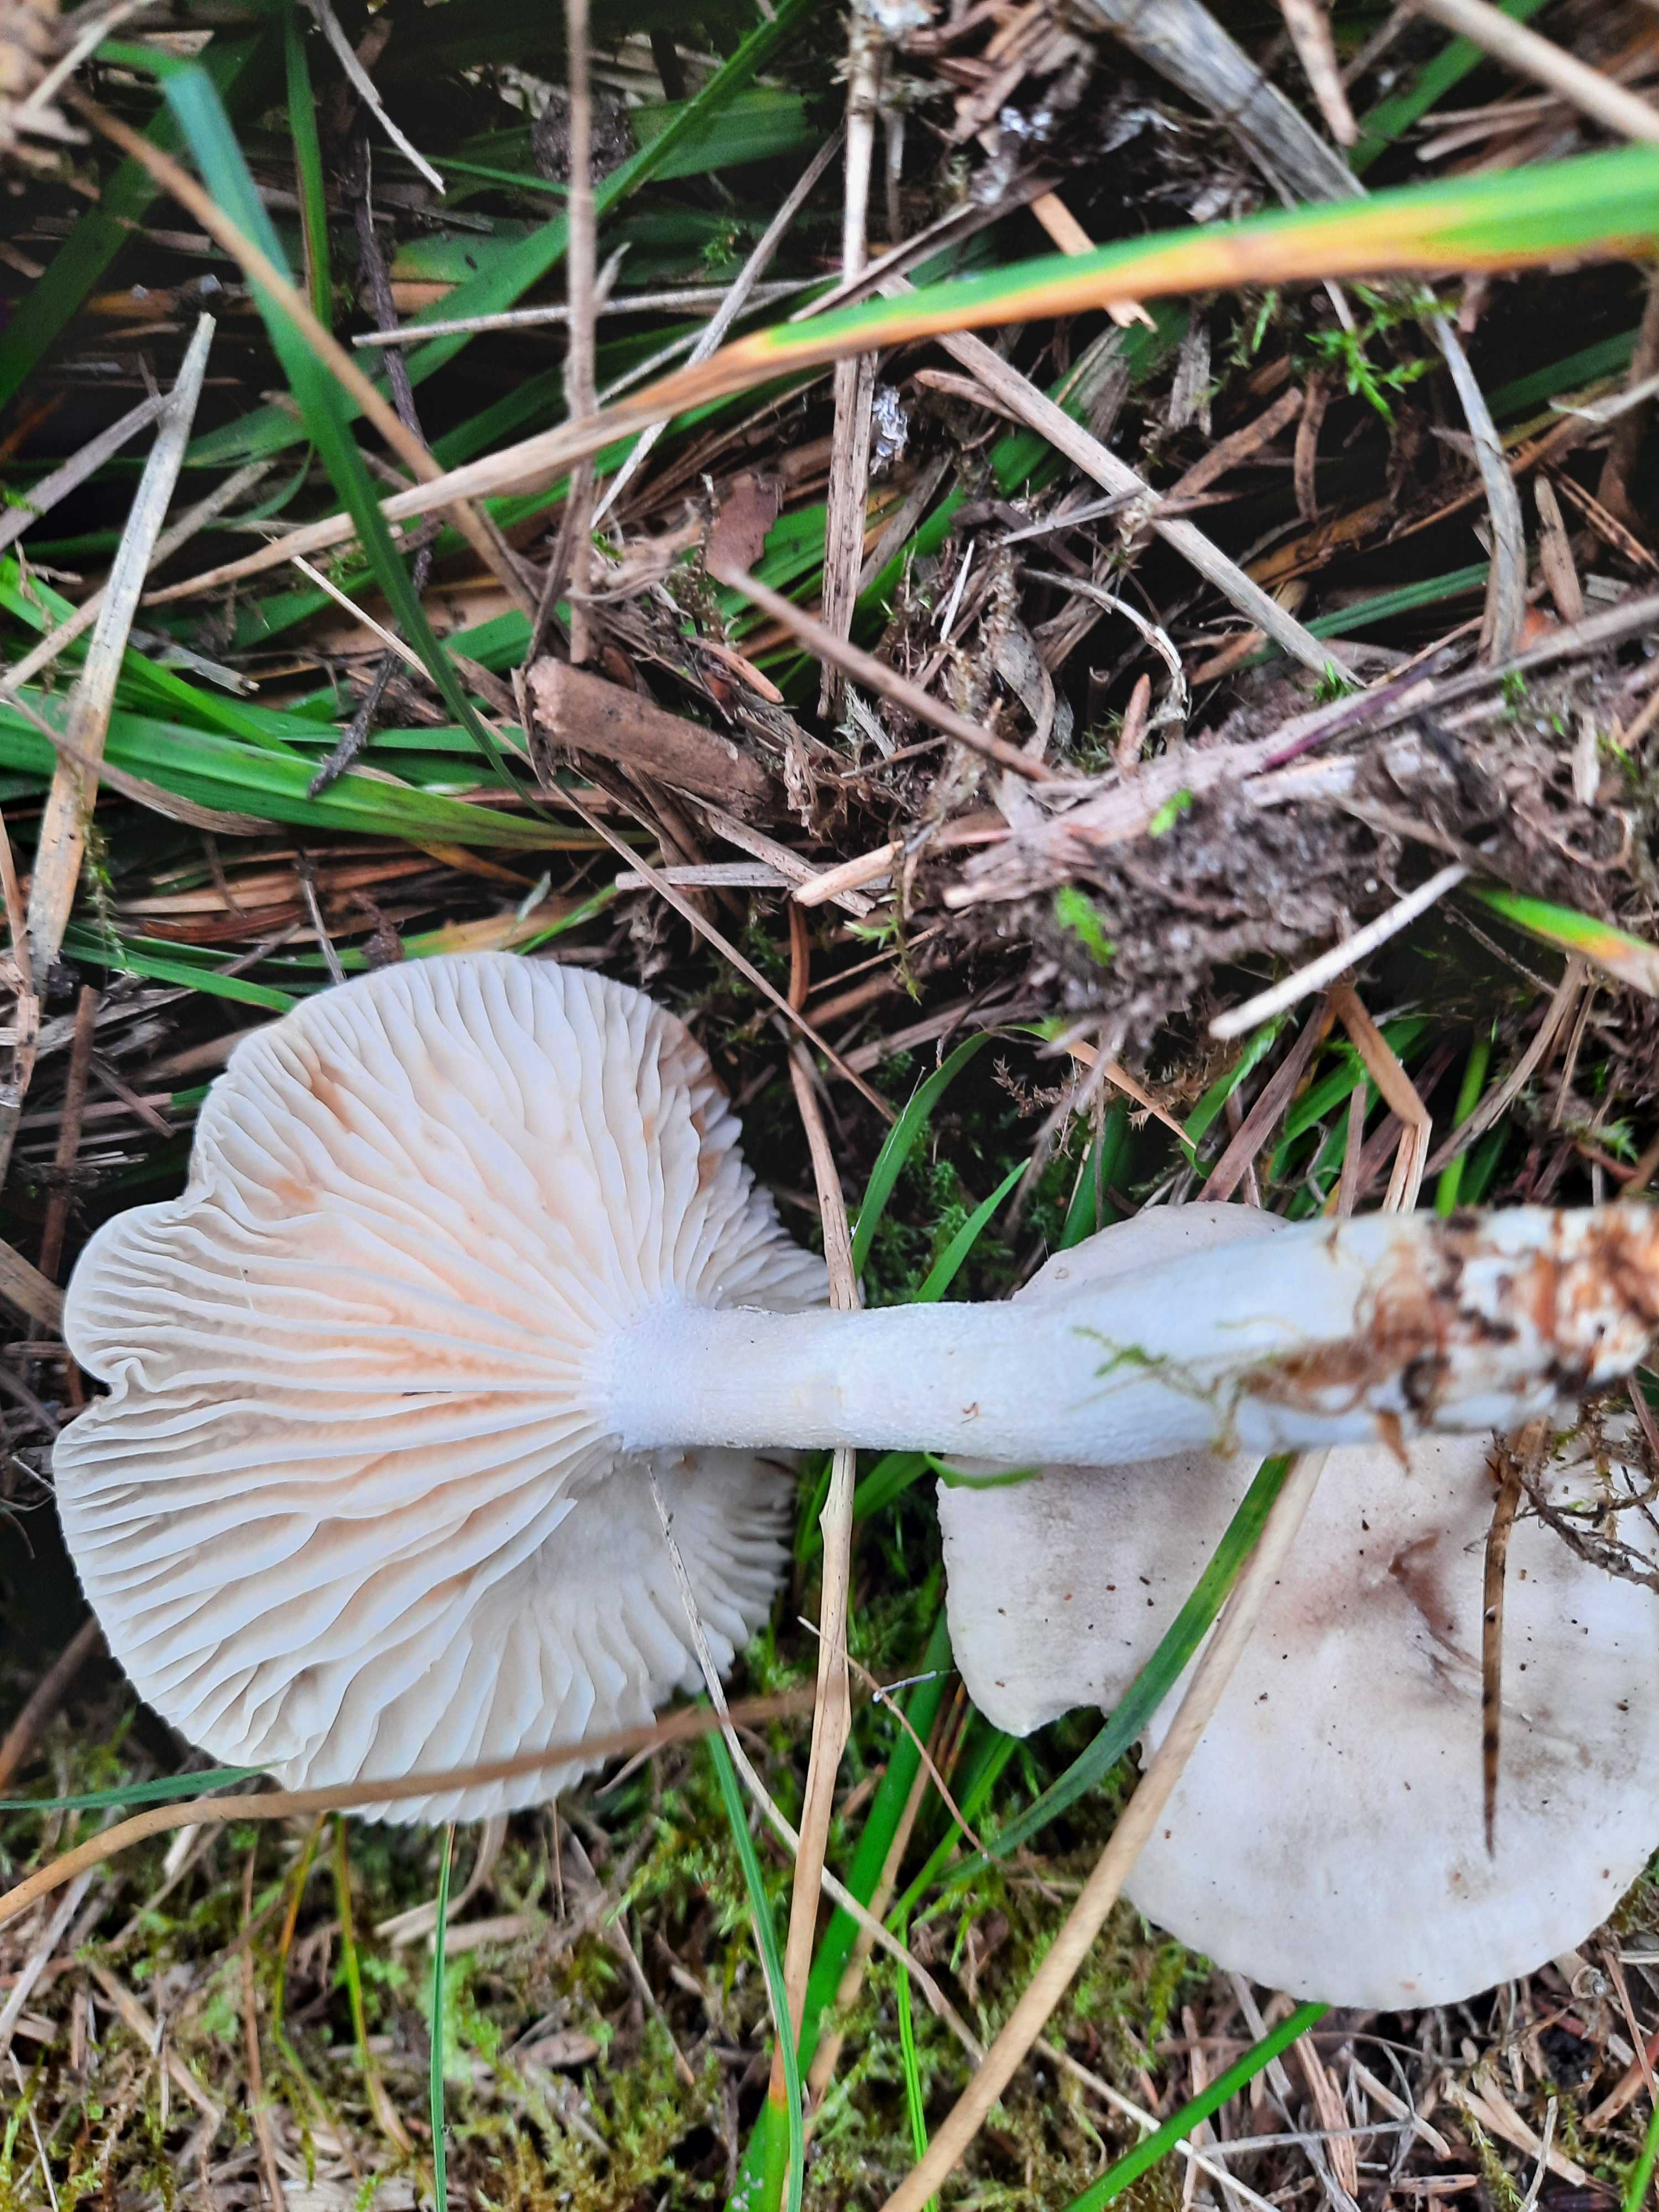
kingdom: Fungi
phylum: Basidiomycota
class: Agaricomycetes
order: Agaricales
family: Hygrophoraceae
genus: Hygrophorus
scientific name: Hygrophorus agathosmus
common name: vellugtende sneglehat
